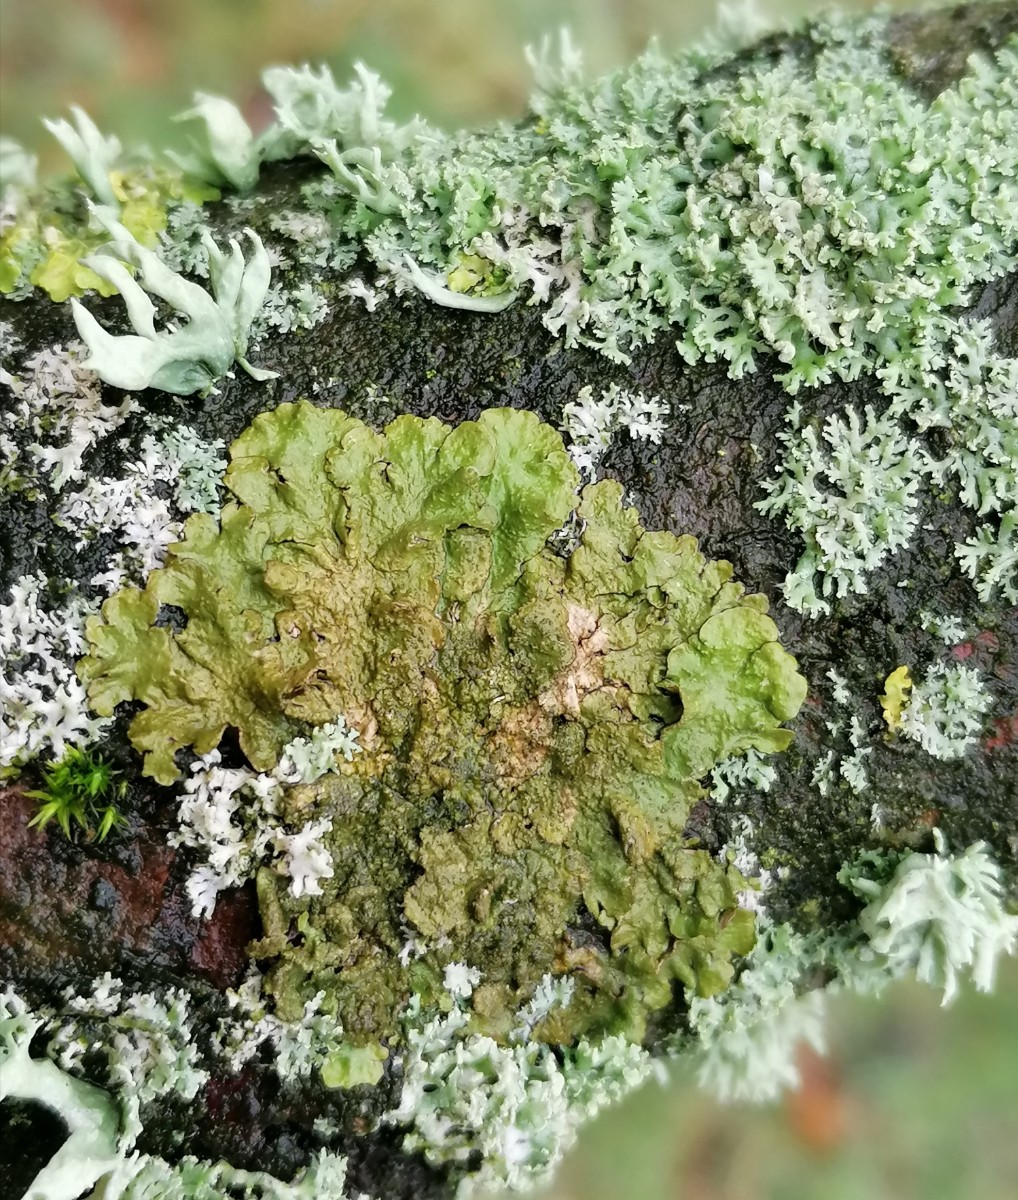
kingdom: Fungi
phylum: Ascomycota
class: Lecanoromycetes
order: Lecanorales
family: Parmeliaceae
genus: Melanelixia
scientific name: Melanelixia subaurifera
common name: guldpudret skållav
